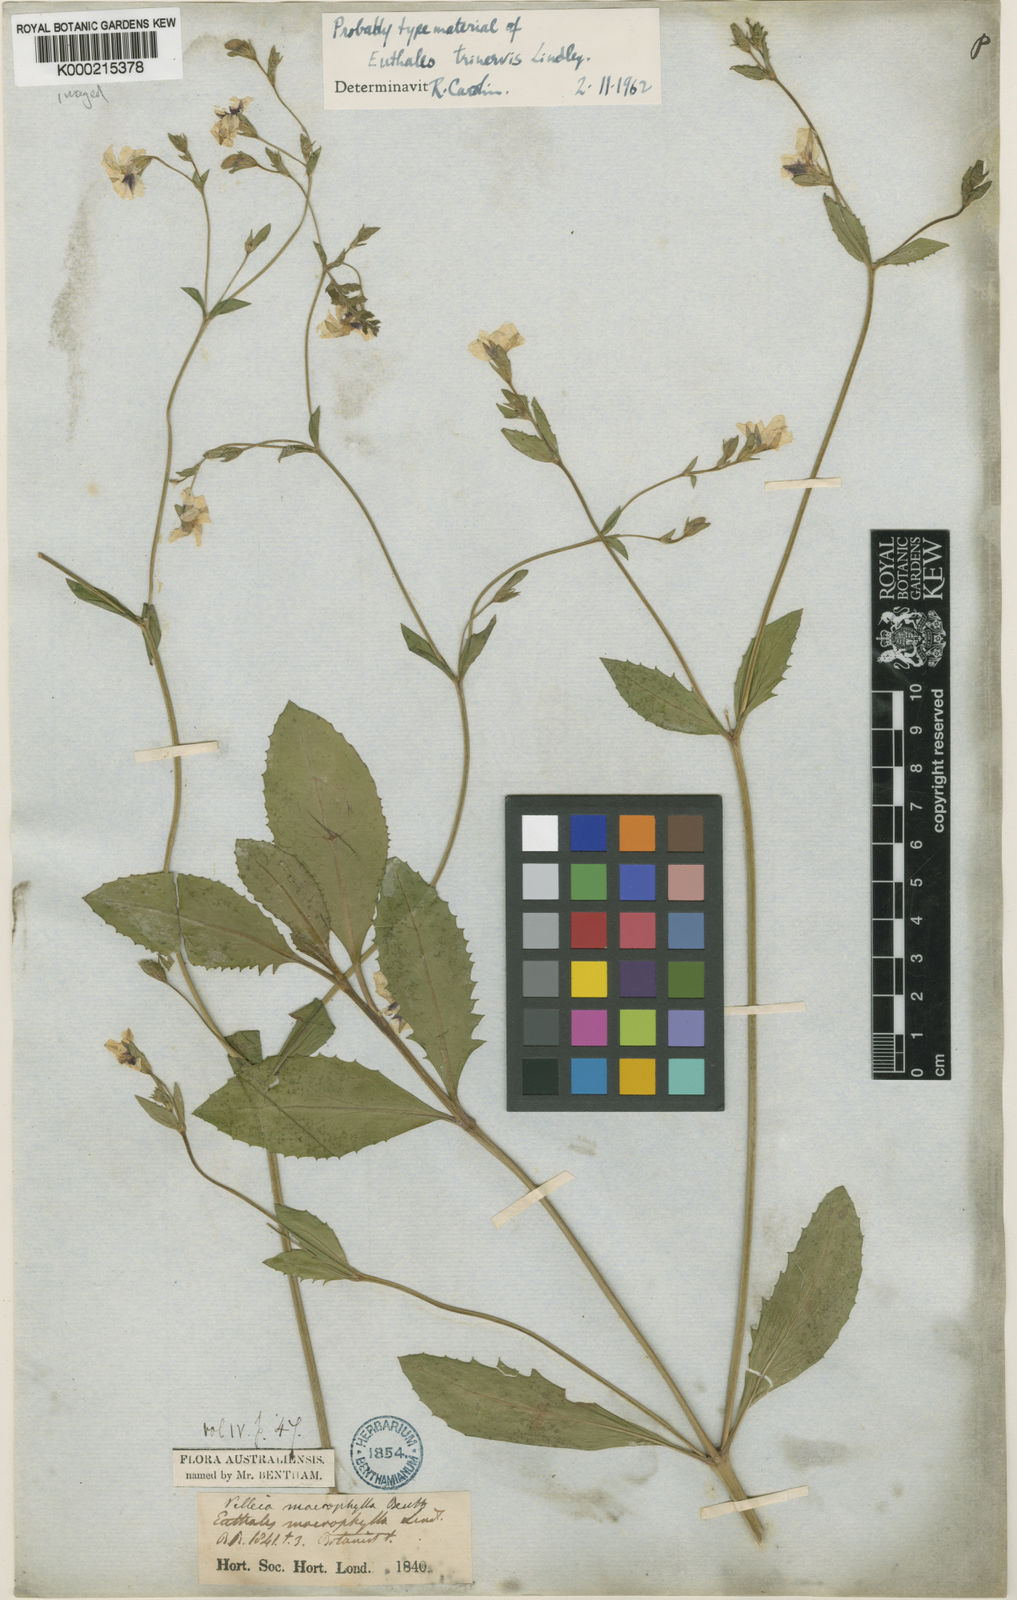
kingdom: Plantae
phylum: Tracheophyta
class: Magnoliopsida
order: Asterales
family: Goodeniaceae
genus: Goodenia
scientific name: Goodenia macrophylla
